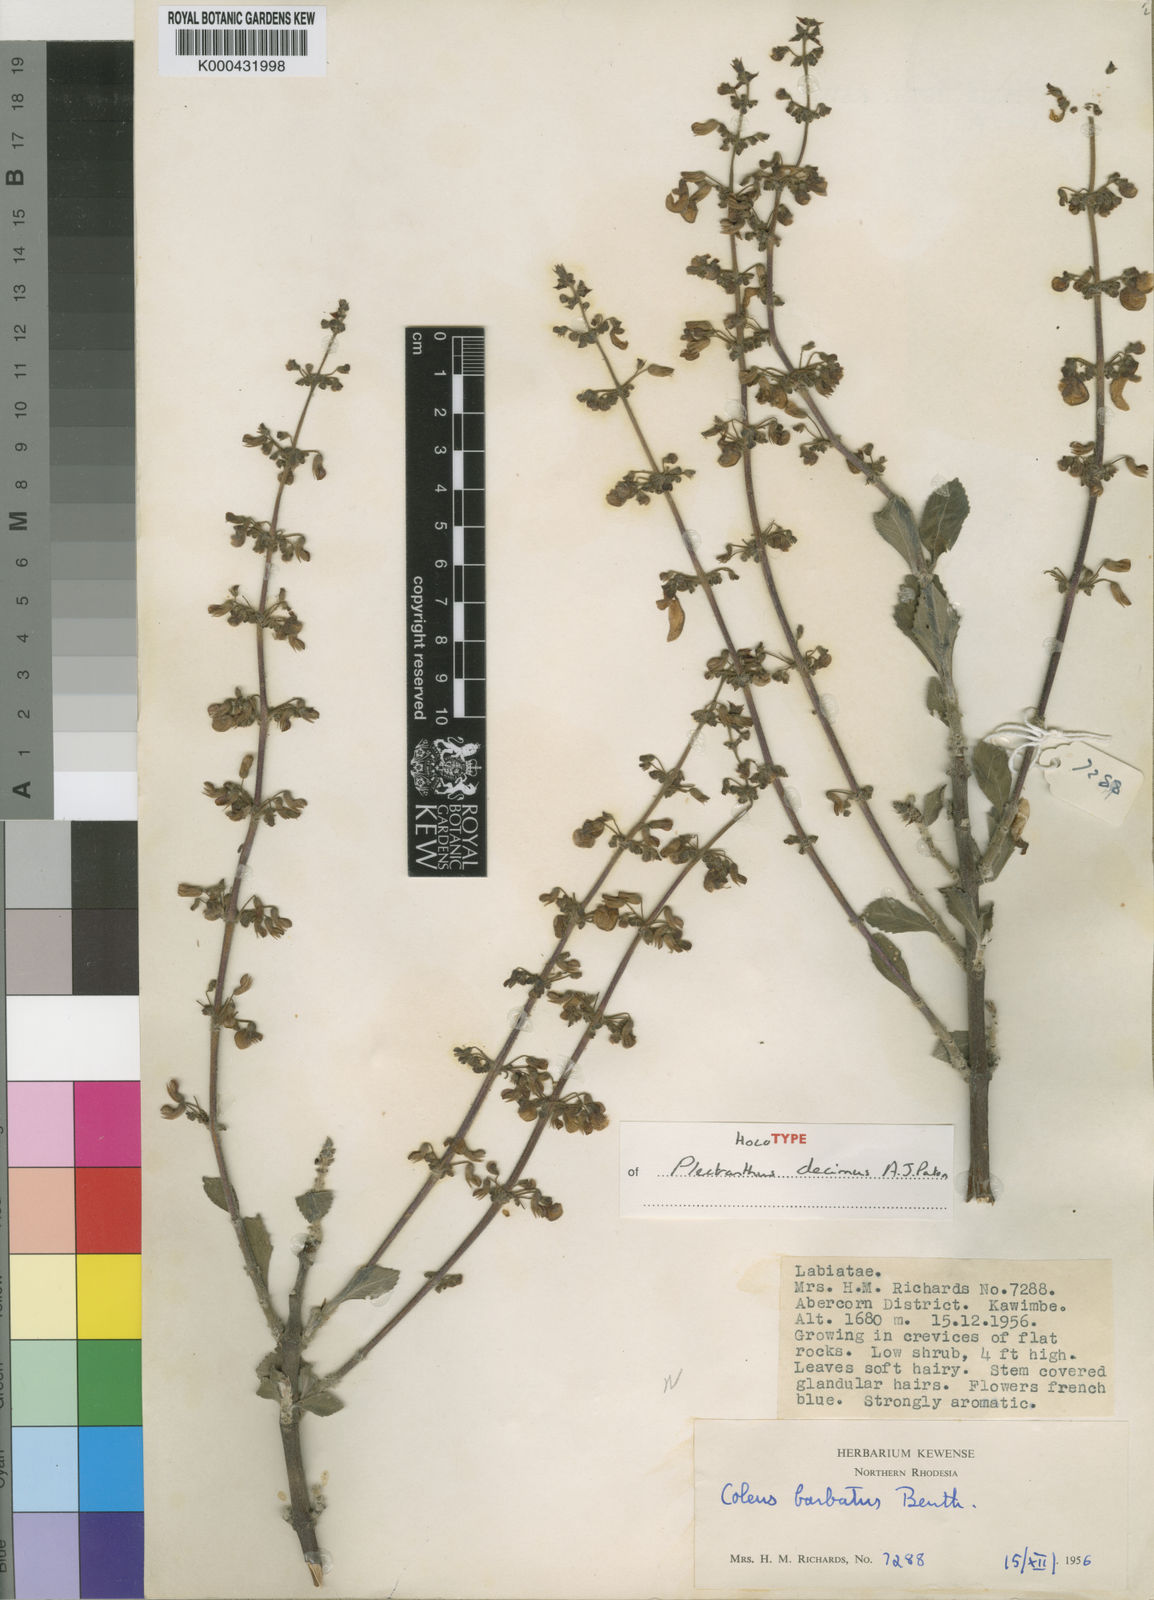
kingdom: Plantae
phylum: Tracheophyta
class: Magnoliopsida
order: Lamiales
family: Lamiaceae
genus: Coleus
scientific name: Coleus decimus
